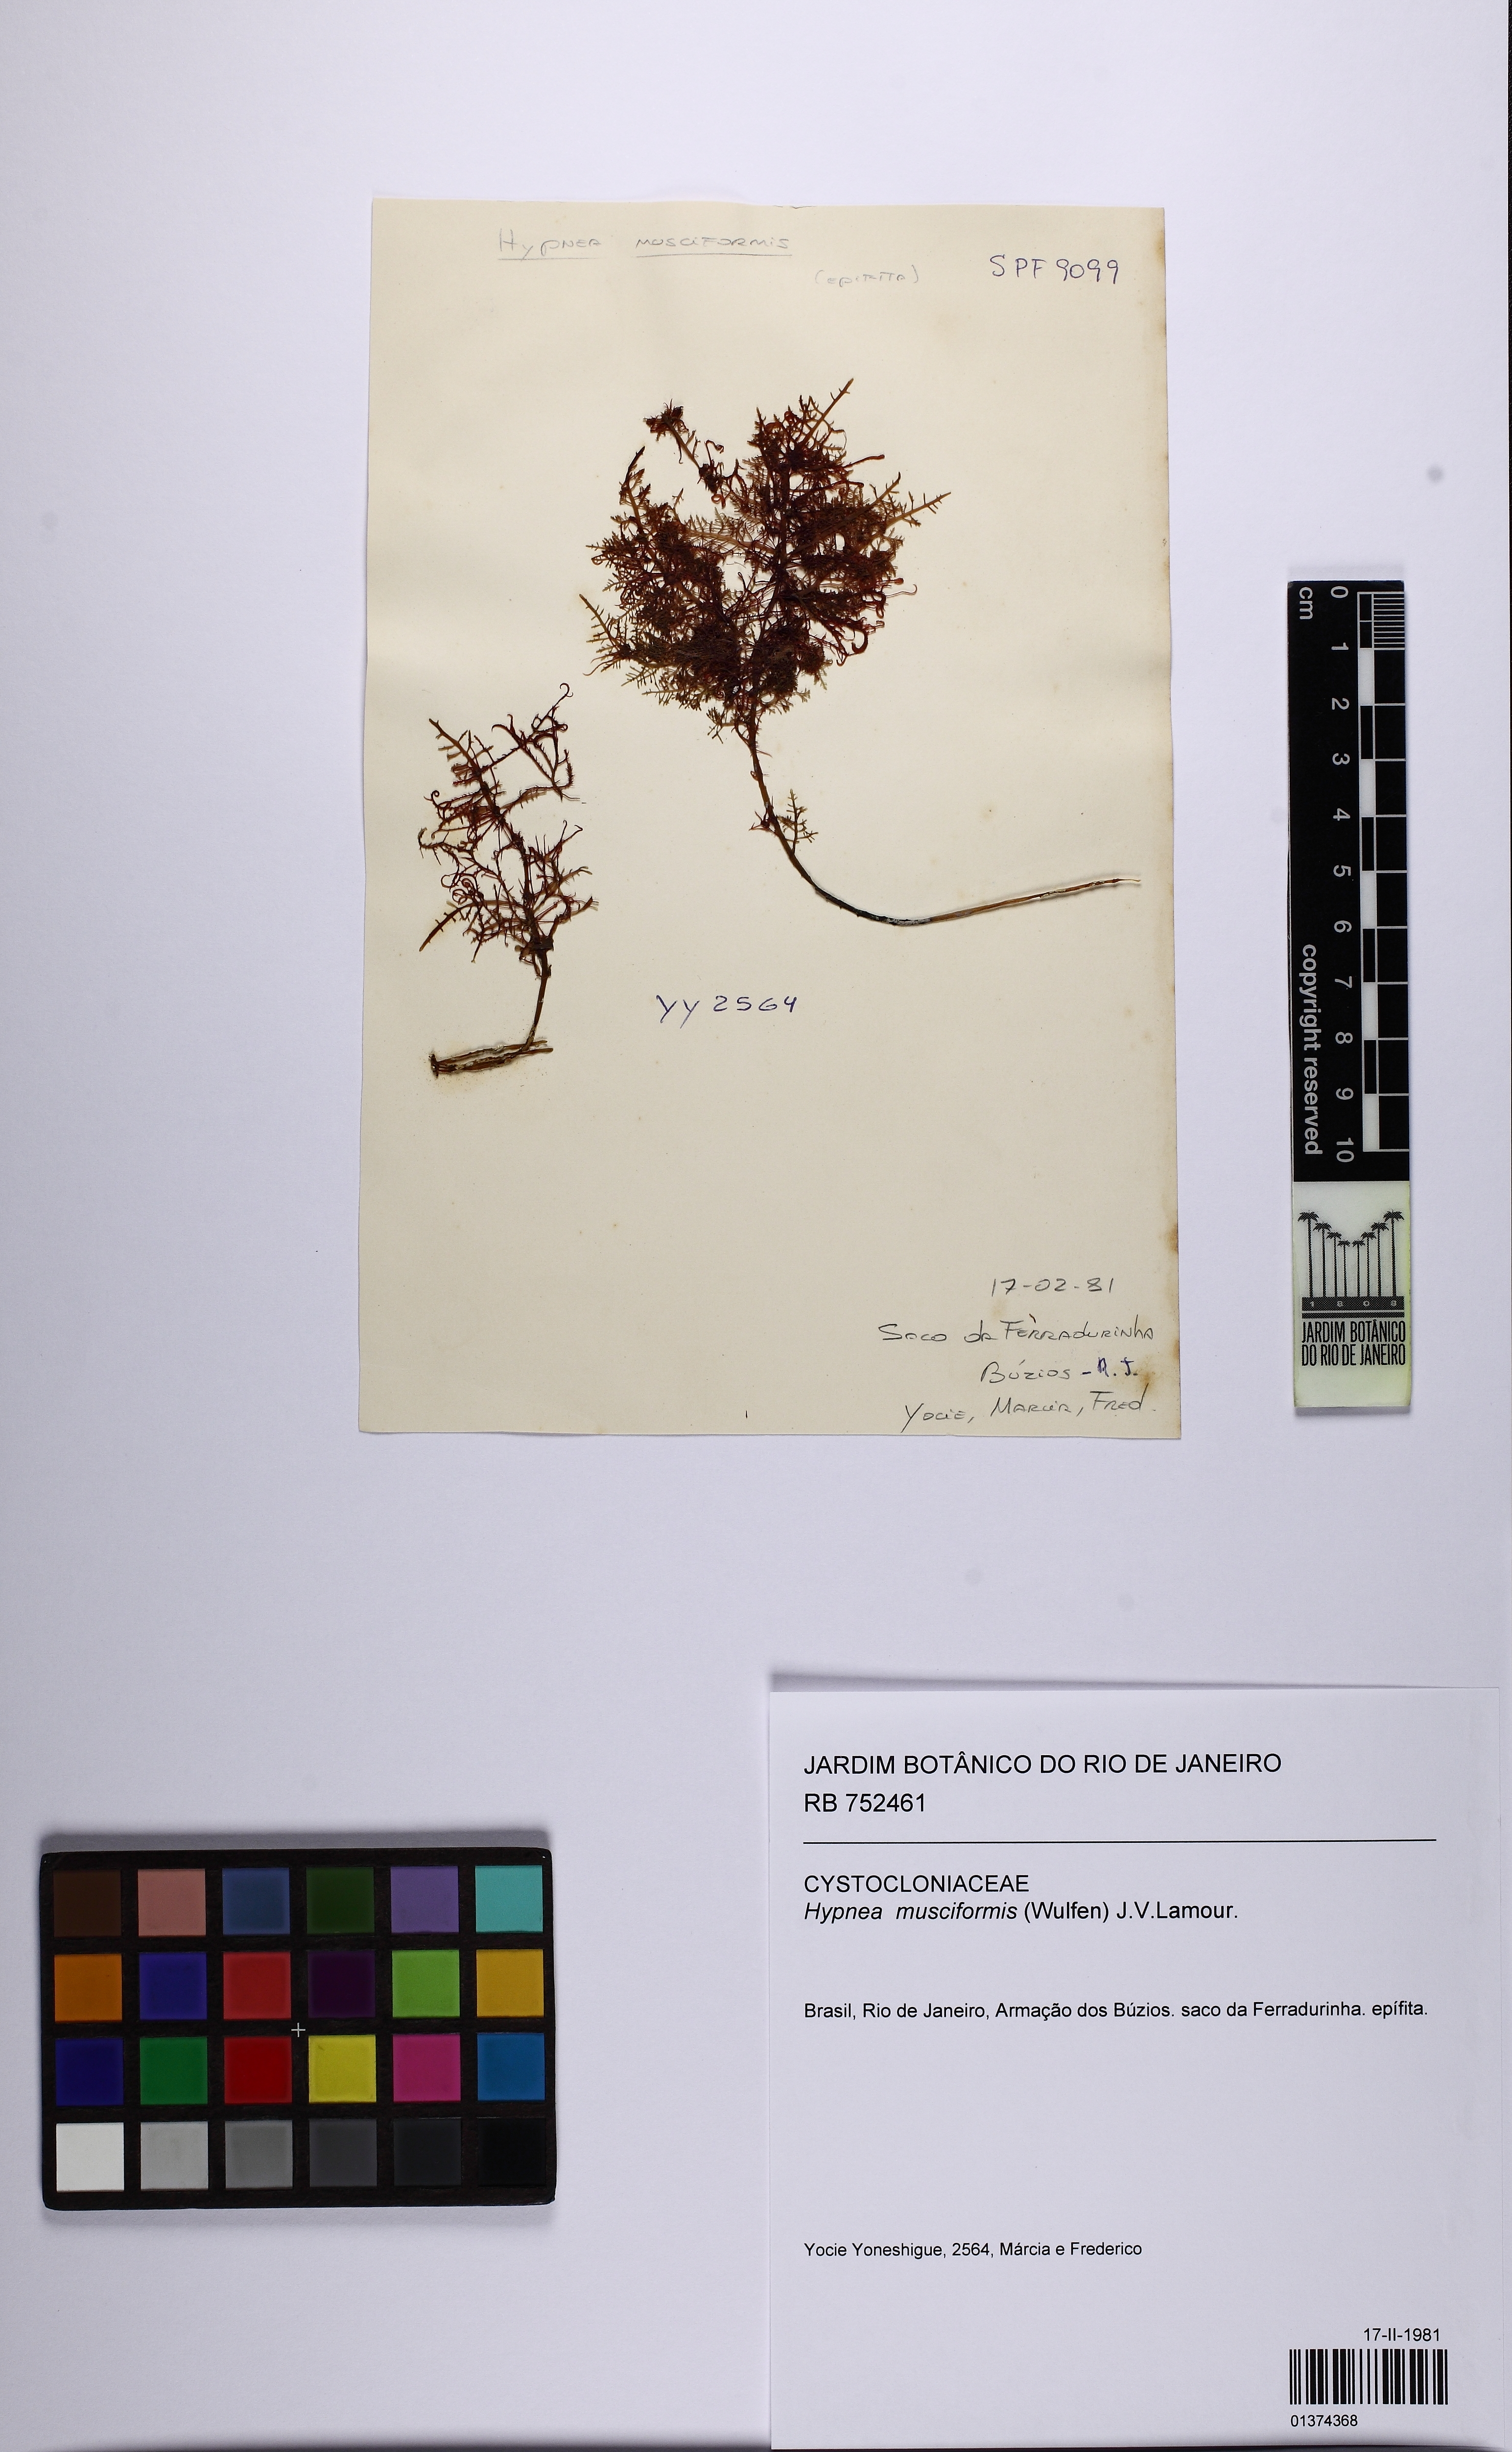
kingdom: Plantae
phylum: Rhodophyta
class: Florideophyceae
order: Gigartinales
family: Cystocloniaceae
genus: Hypnea
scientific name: Hypnea musciformis
